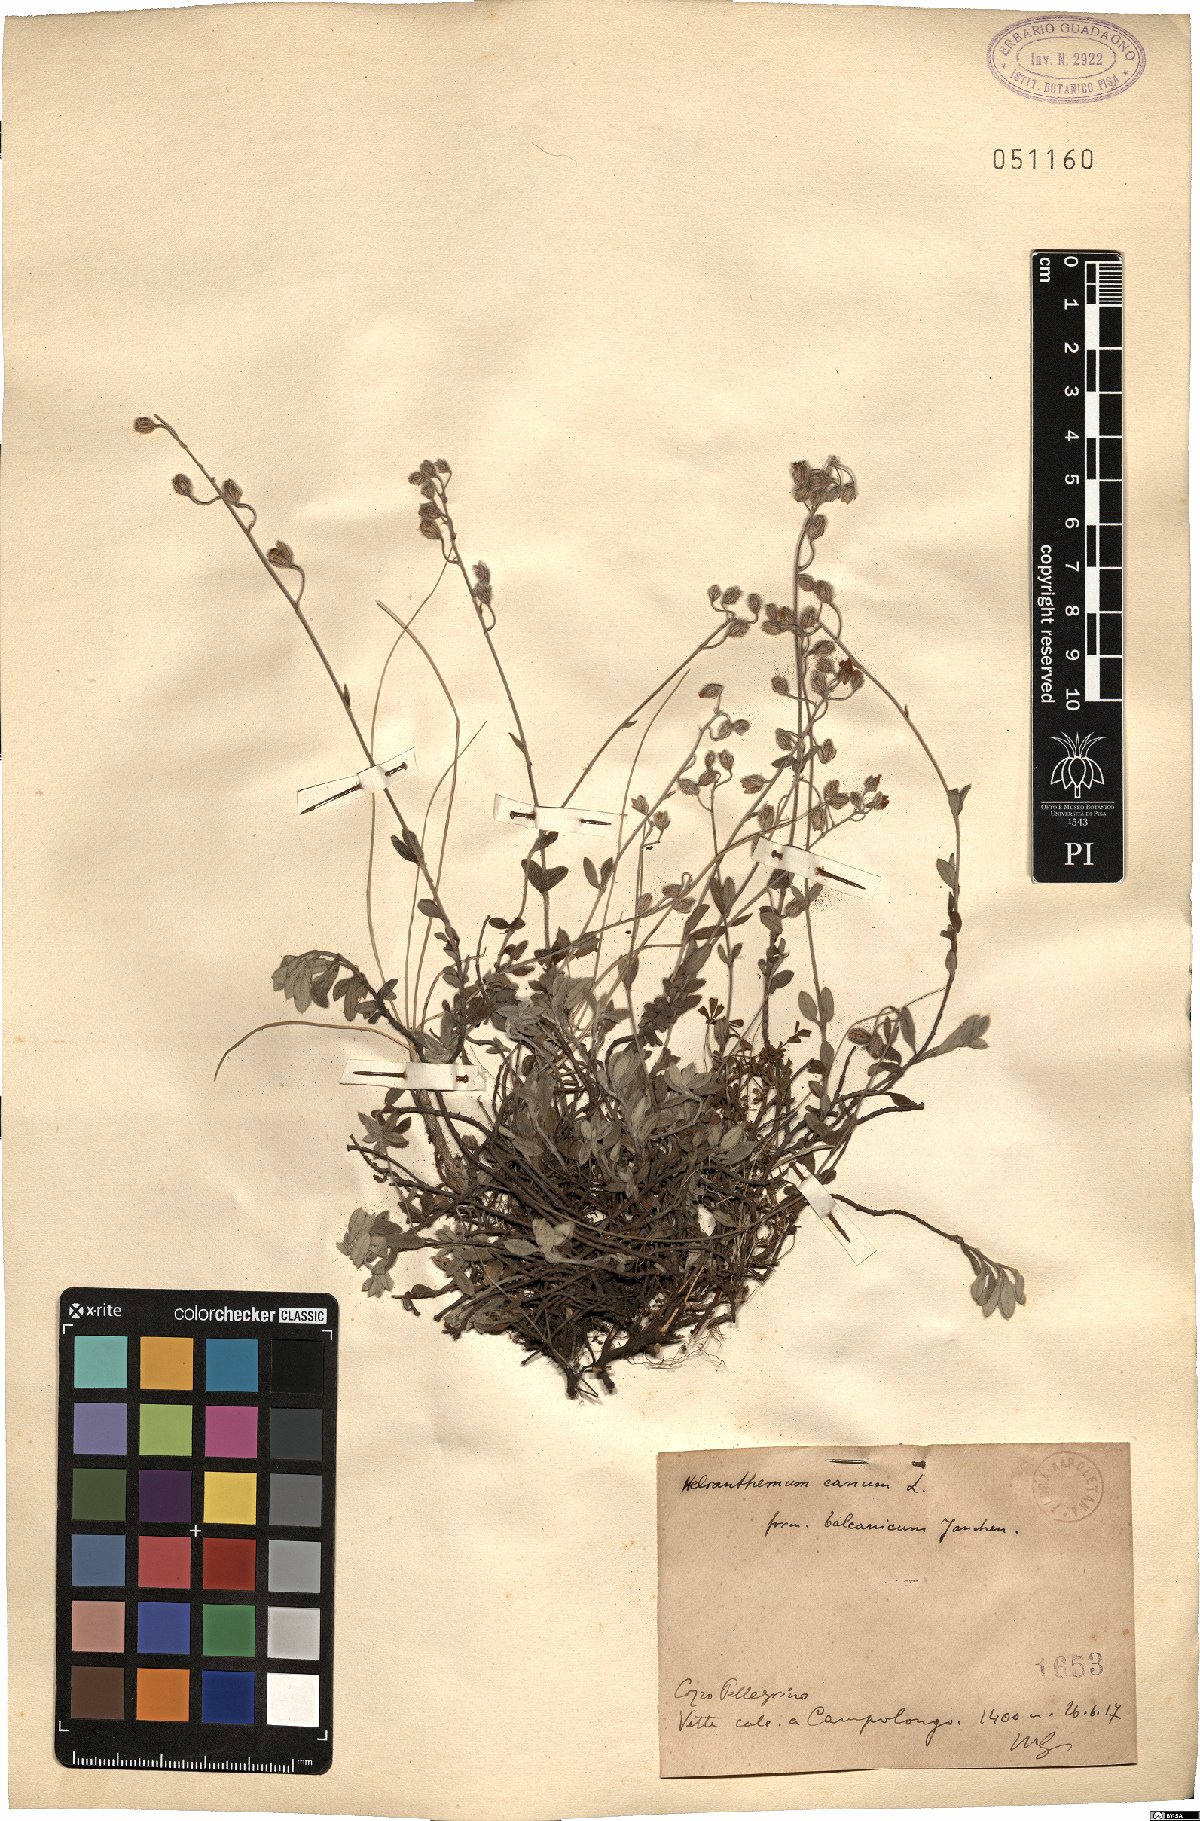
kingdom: Plantae
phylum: Tracheophyta
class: Magnoliopsida
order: Malvales
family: Cistaceae
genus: Helianthemum
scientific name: Helianthemum canum
